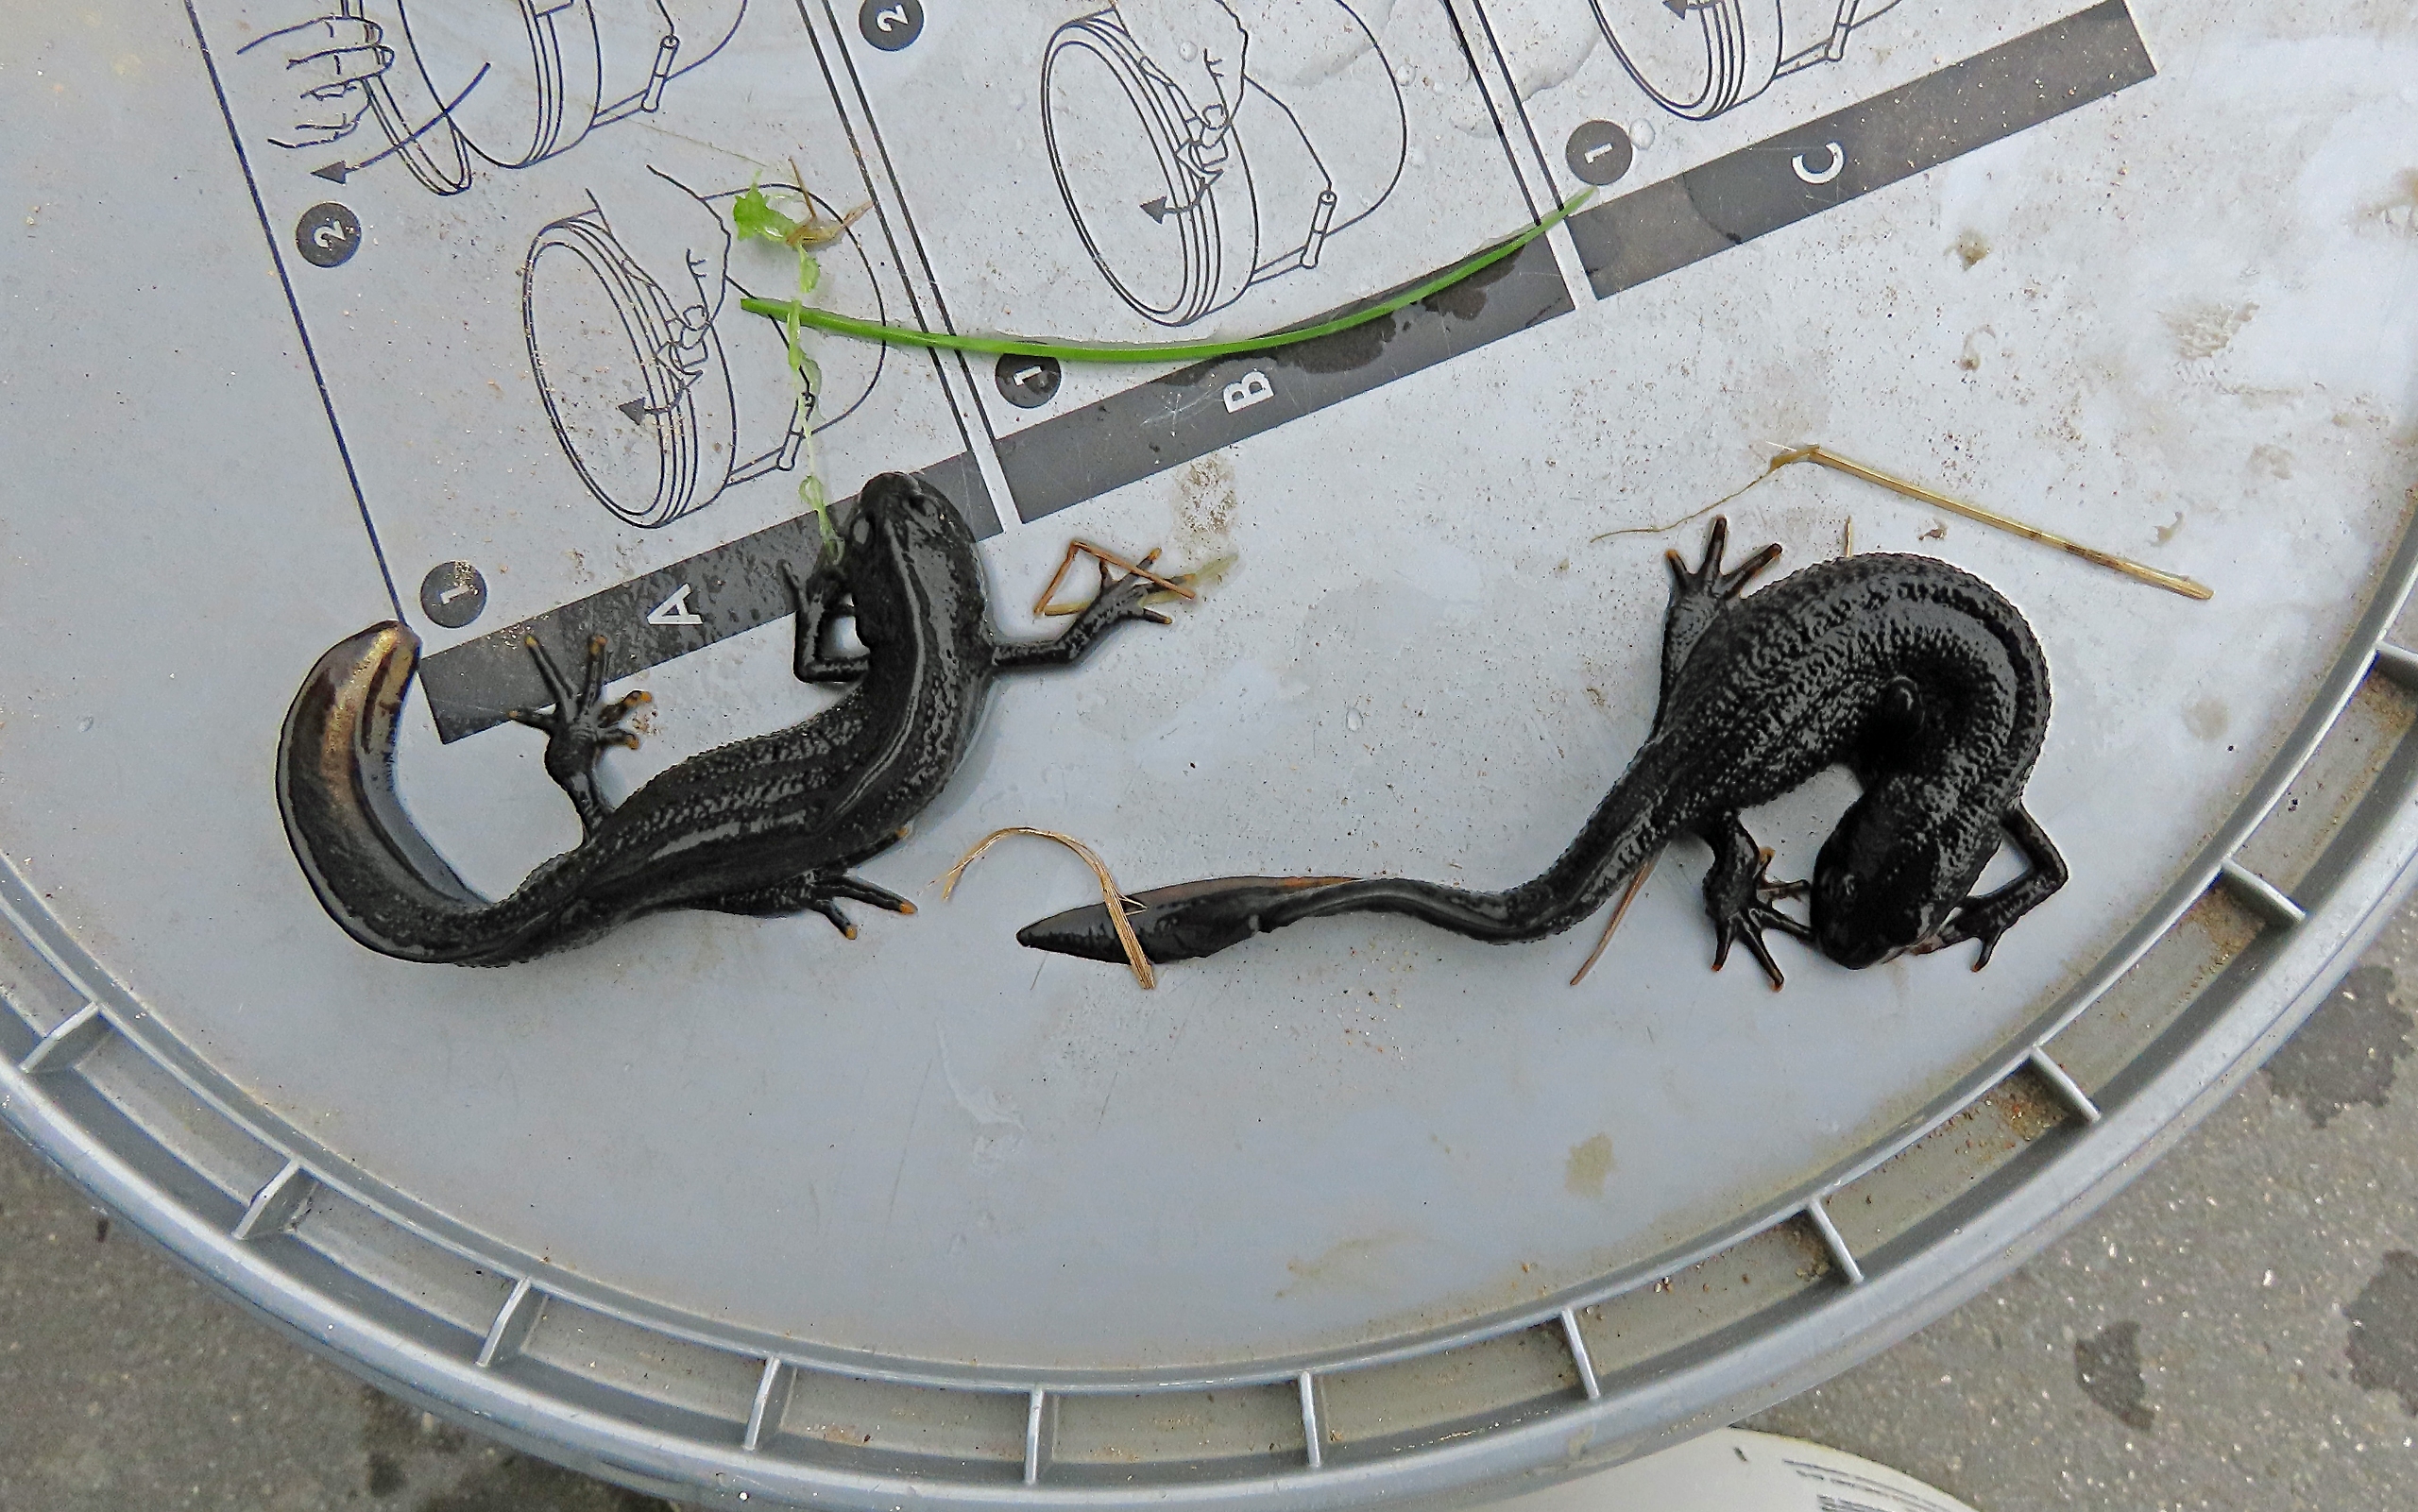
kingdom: Animalia
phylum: Chordata
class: Amphibia
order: Caudata
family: Salamandridae
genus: Triturus
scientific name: Triturus cristatus
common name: Stor vandsalamander
